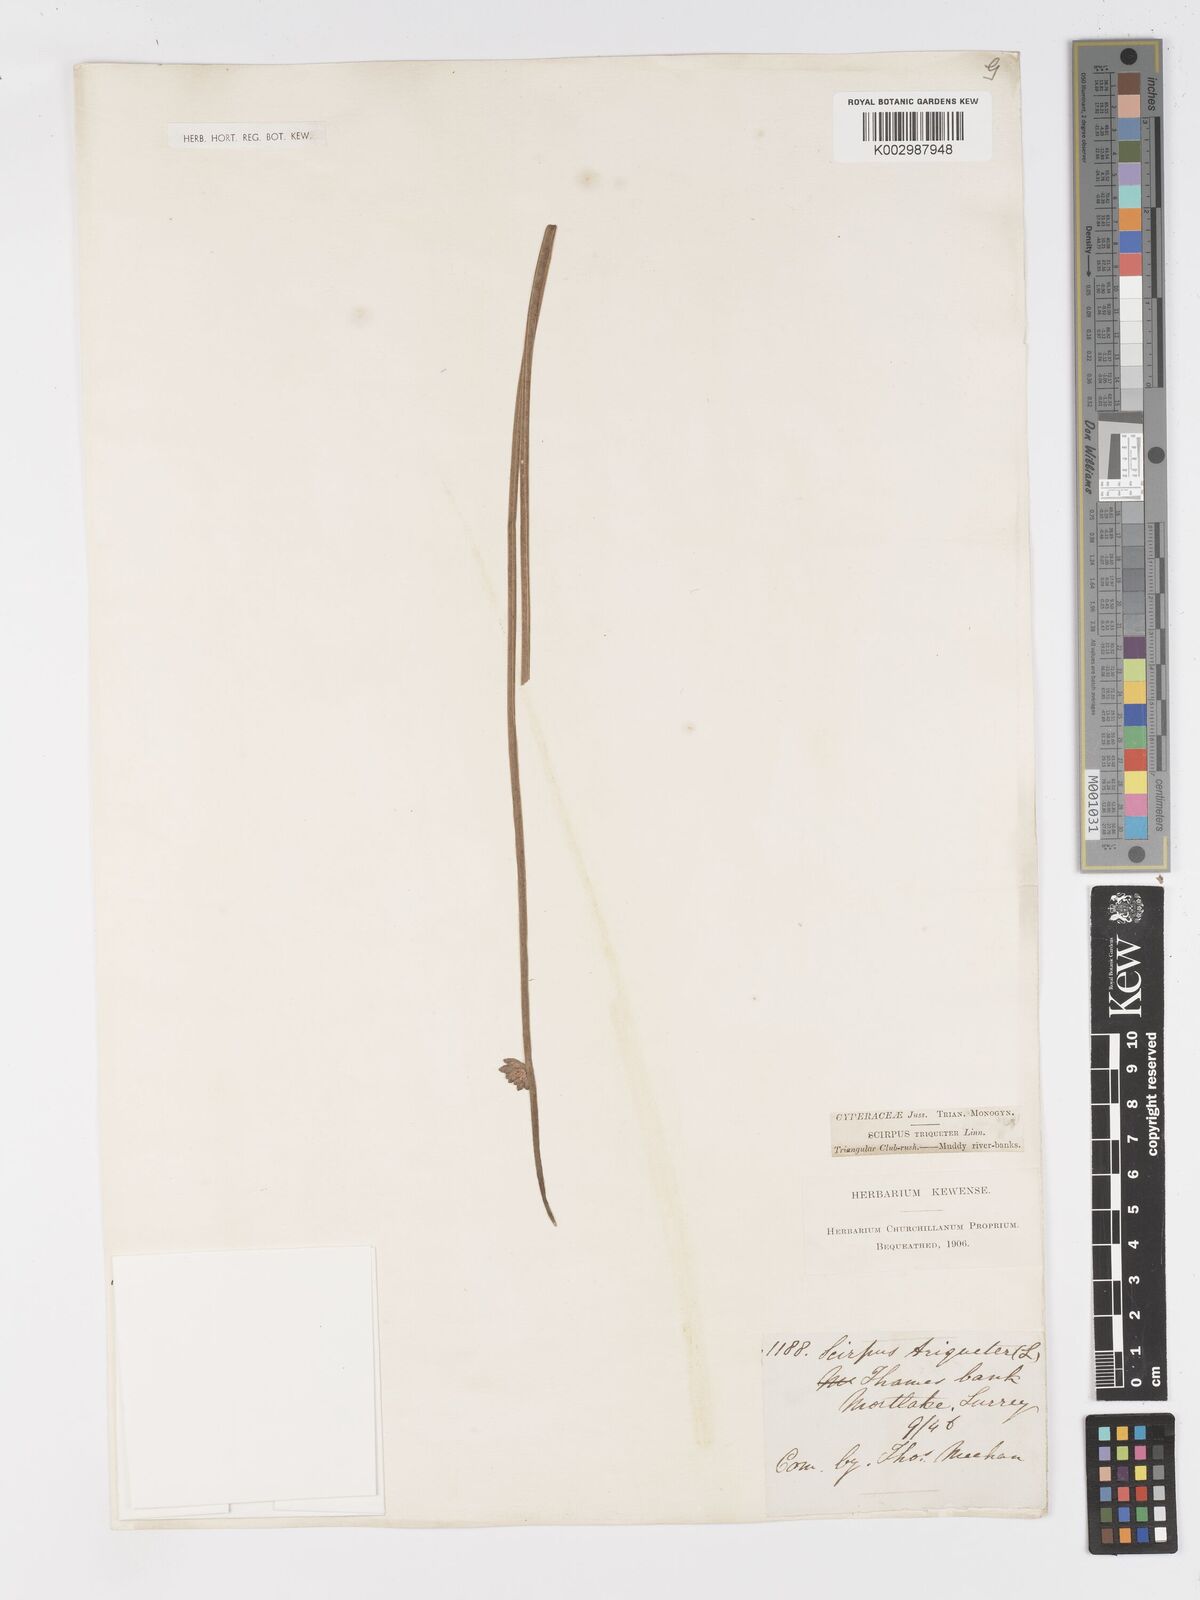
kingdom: Plantae
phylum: Tracheophyta
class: Liliopsida
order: Poales
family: Cyperaceae
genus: Schoenoplectus
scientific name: Schoenoplectus triqueter
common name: Triangular club-rush
